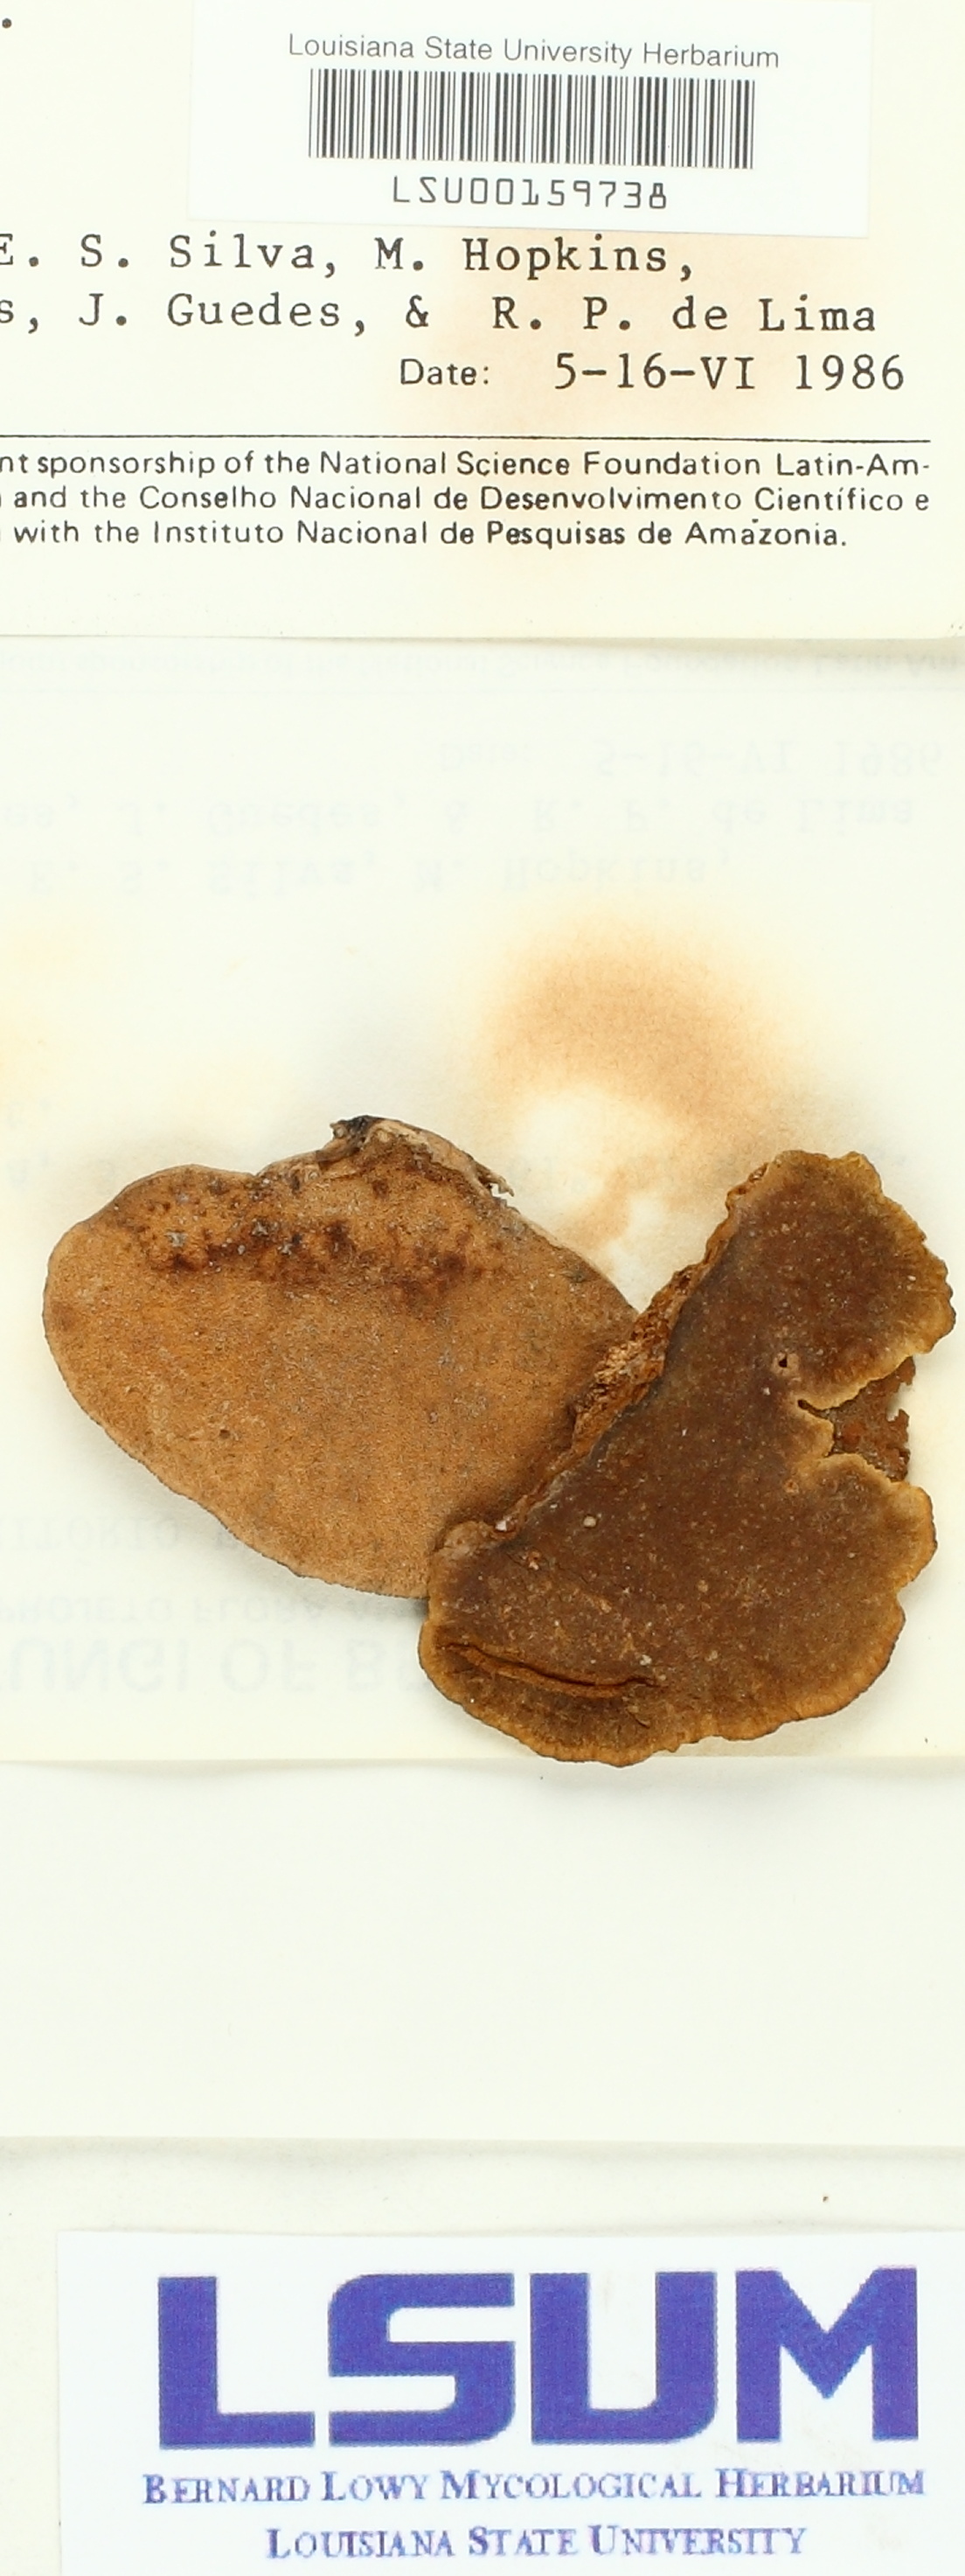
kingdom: Fungi
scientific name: Fungi
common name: Fungi
